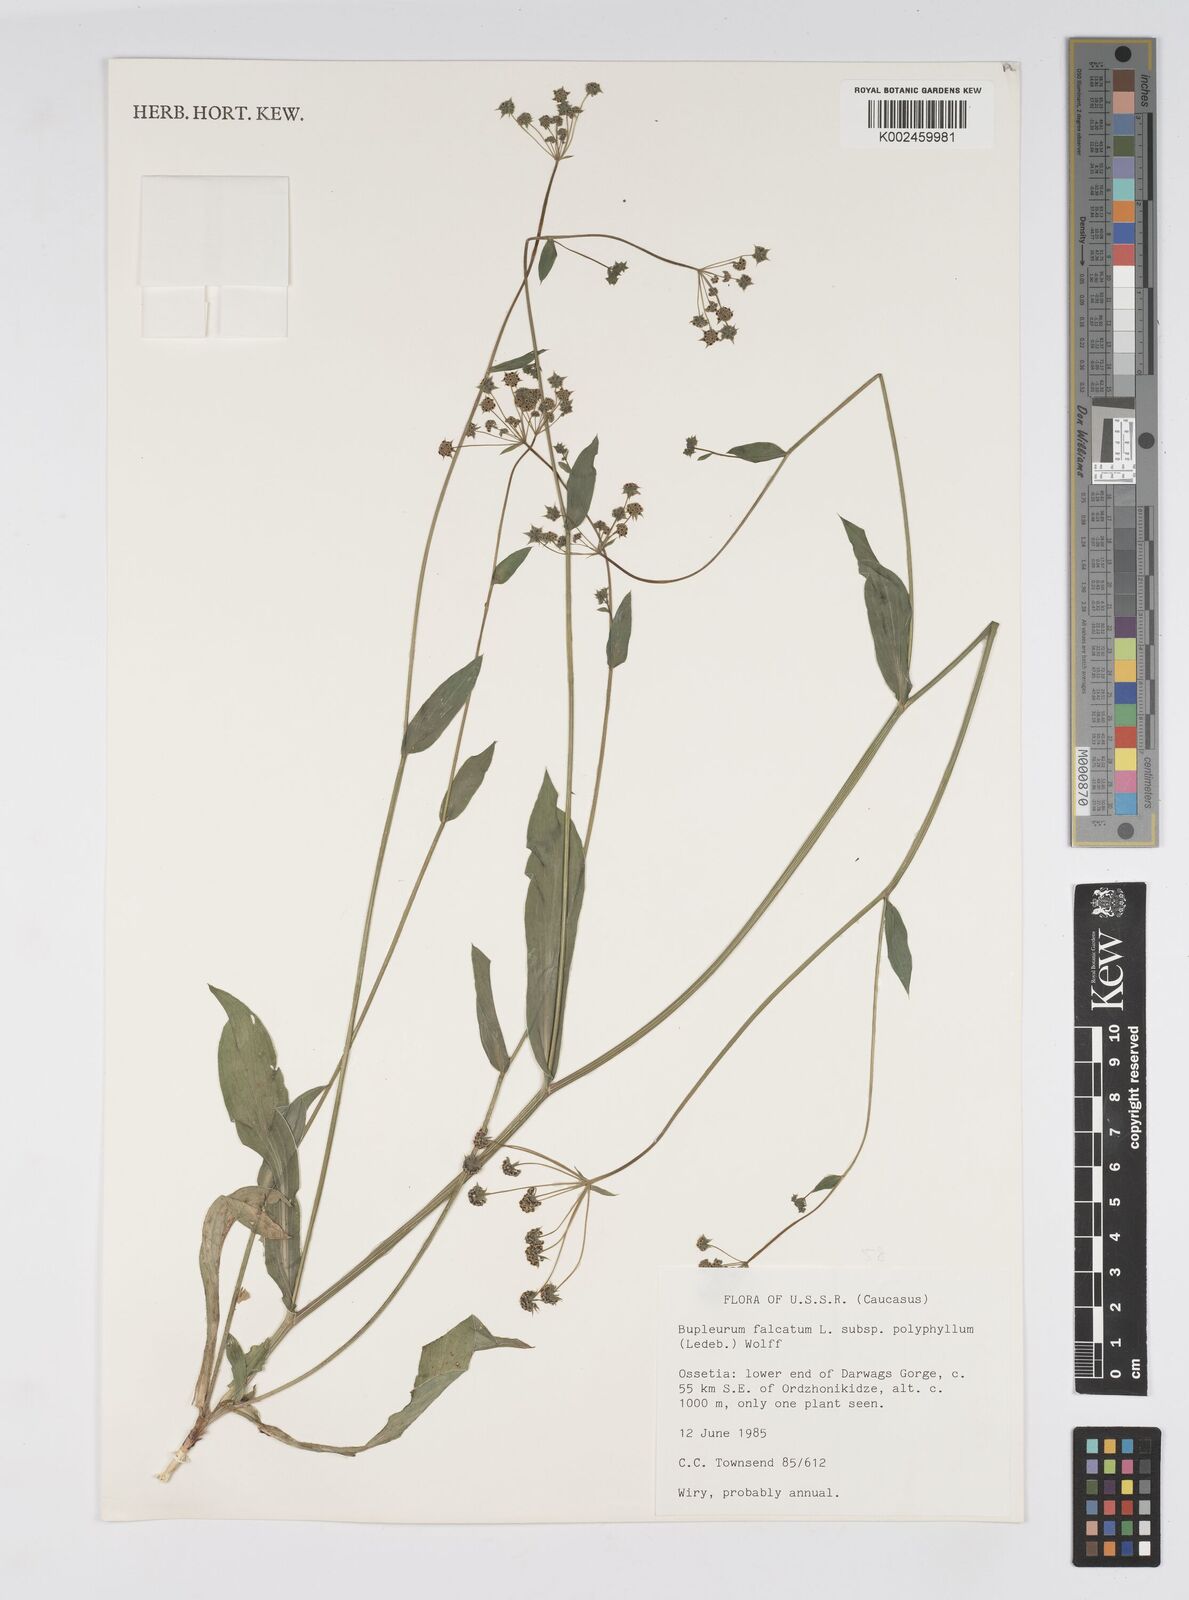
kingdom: Plantae
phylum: Tracheophyta
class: Magnoliopsida
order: Apiales
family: Apiaceae
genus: Bupleurum
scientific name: Bupleurum falcatum
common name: Sickle-leaved hare's-ear
